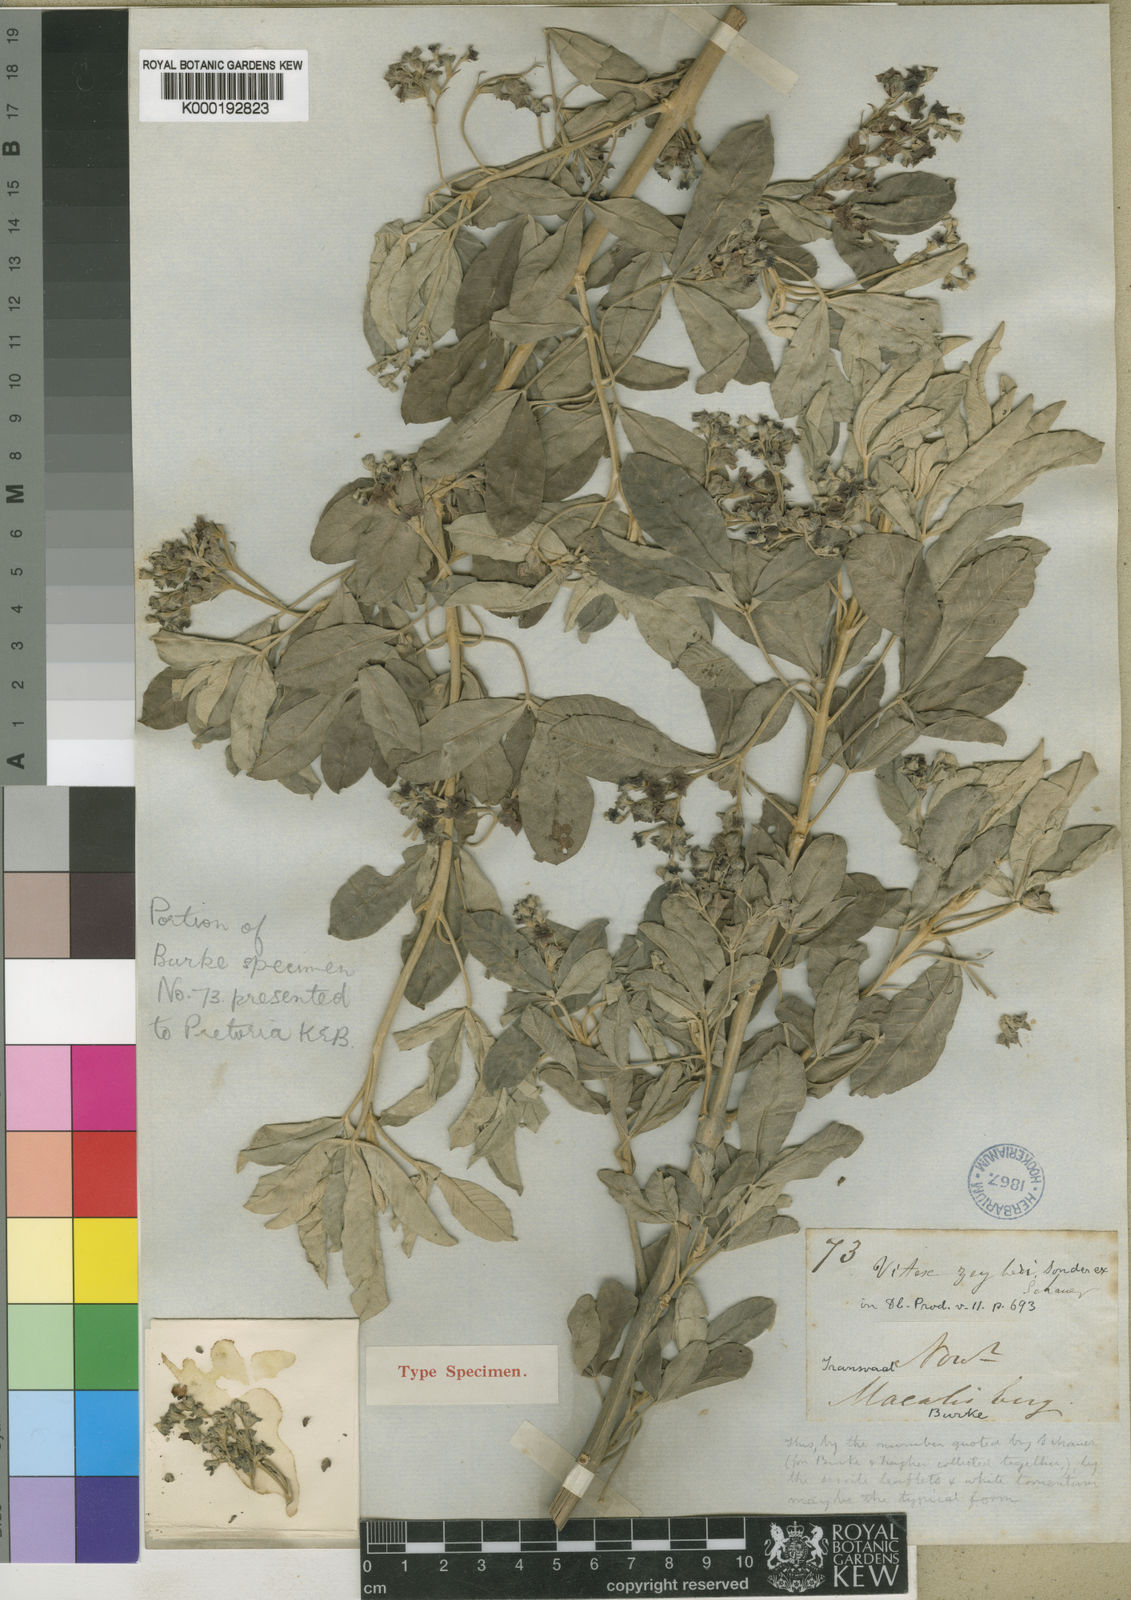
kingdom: Plantae
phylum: Tracheophyta
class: Magnoliopsida
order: Lamiales
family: Lamiaceae
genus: Vitex
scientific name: Vitex zeyheri
